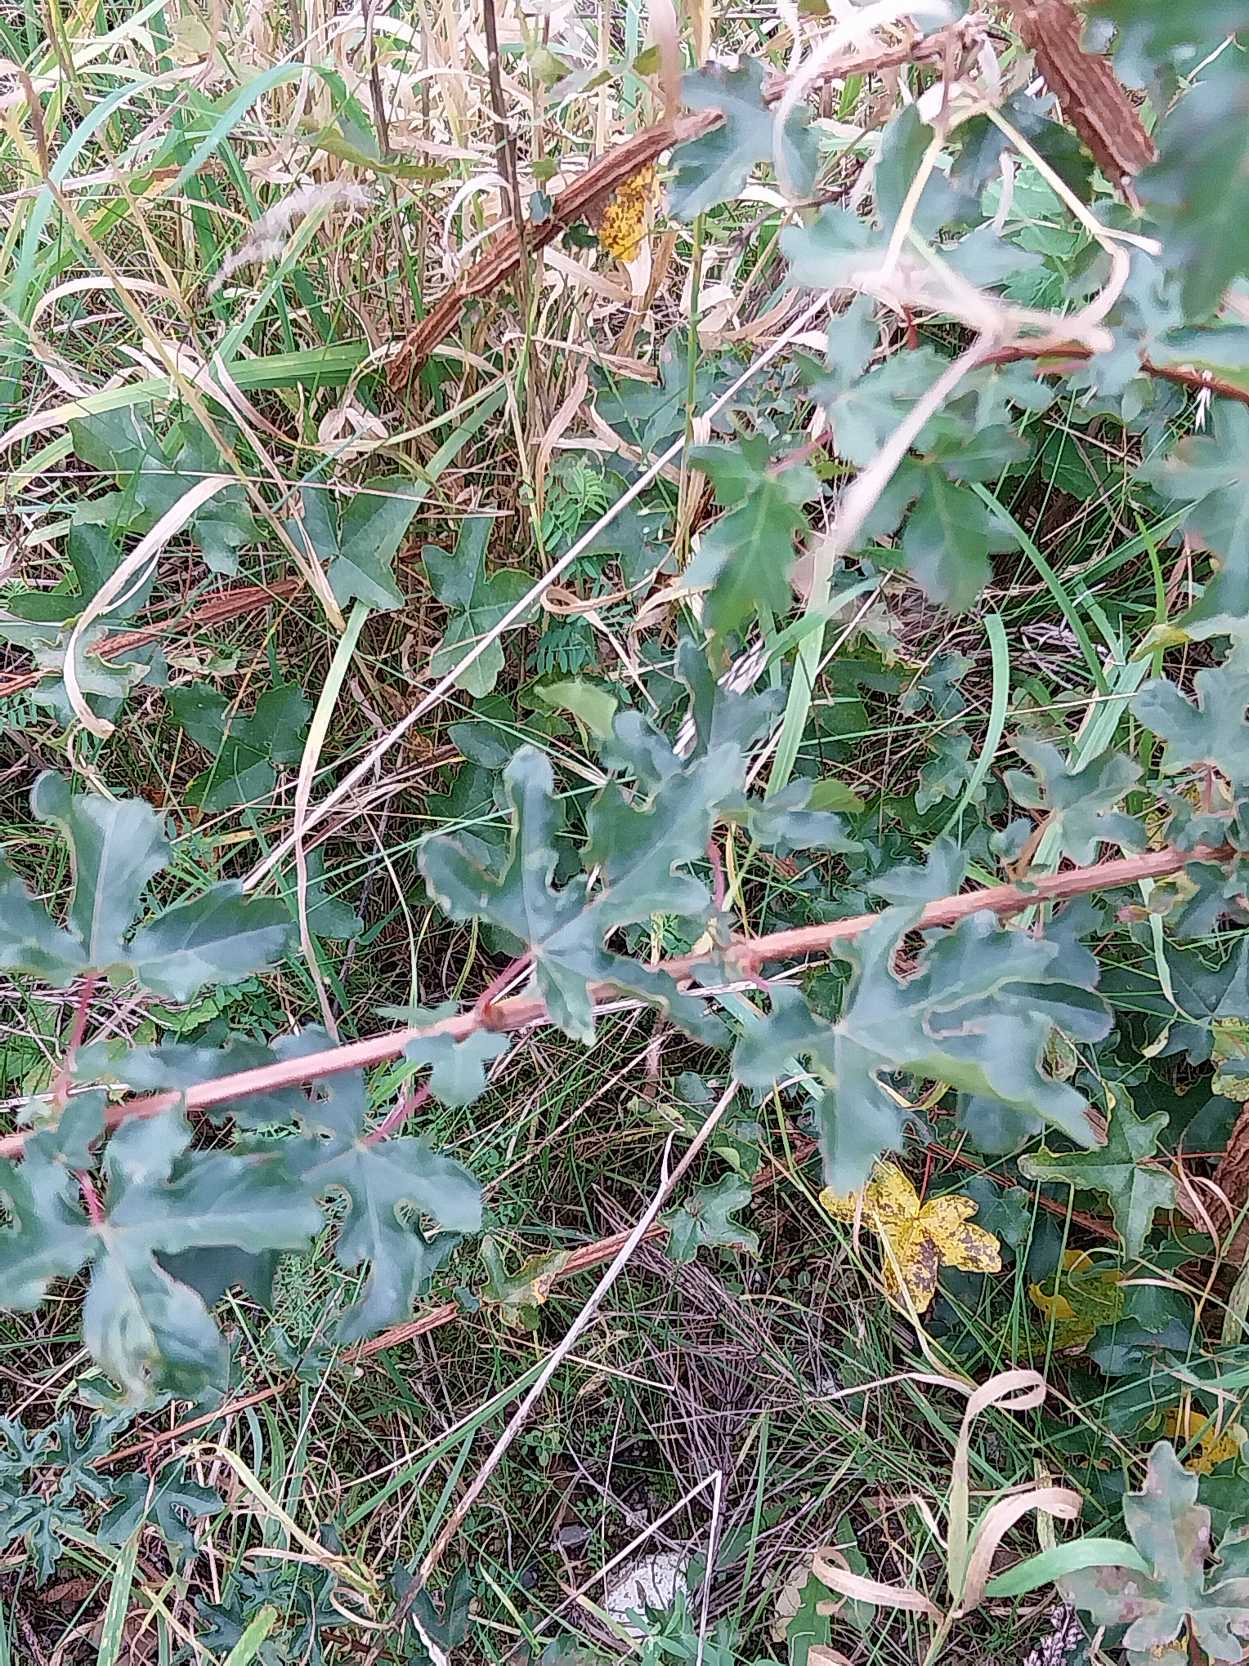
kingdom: Plantae
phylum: Tracheophyta
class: Magnoliopsida
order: Sapindales
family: Sapindaceae
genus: Acer
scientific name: Acer campestre
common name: Navr
